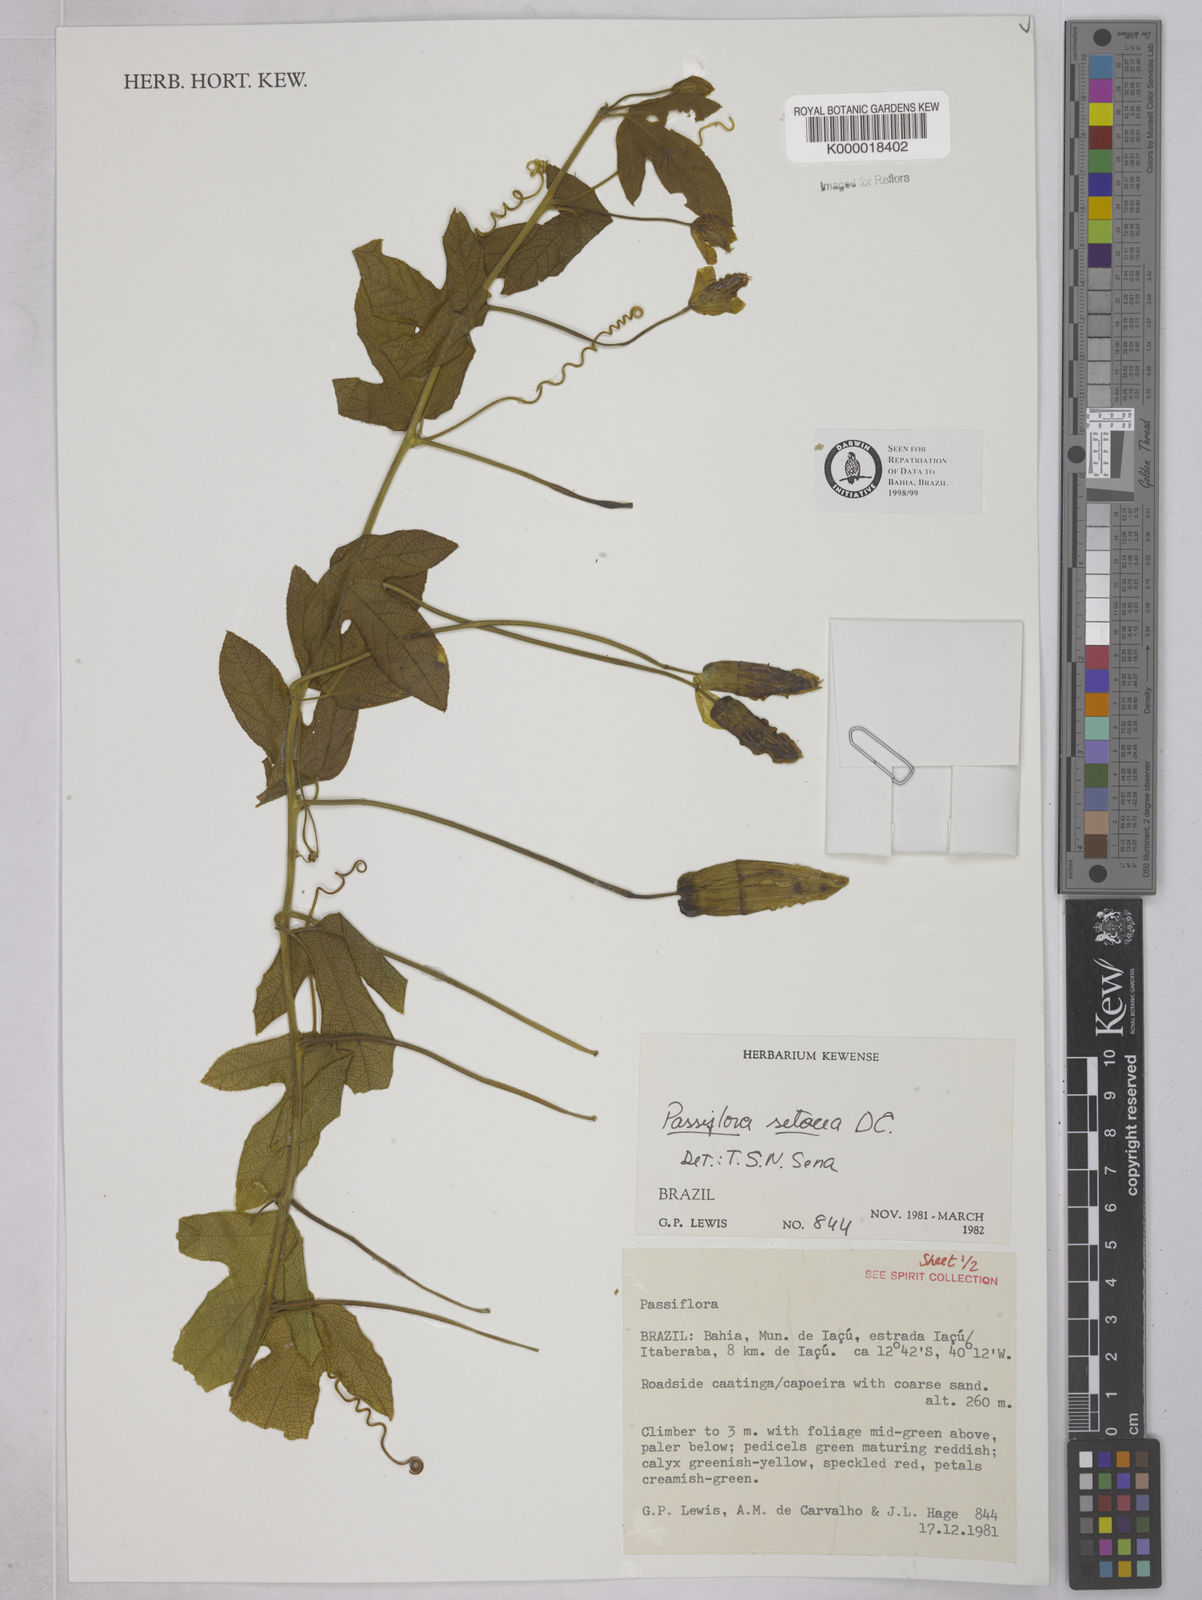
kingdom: Plantae
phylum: Tracheophyta
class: Magnoliopsida
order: Malpighiales
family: Passifloraceae
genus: Passiflora
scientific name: Passiflora setacea
